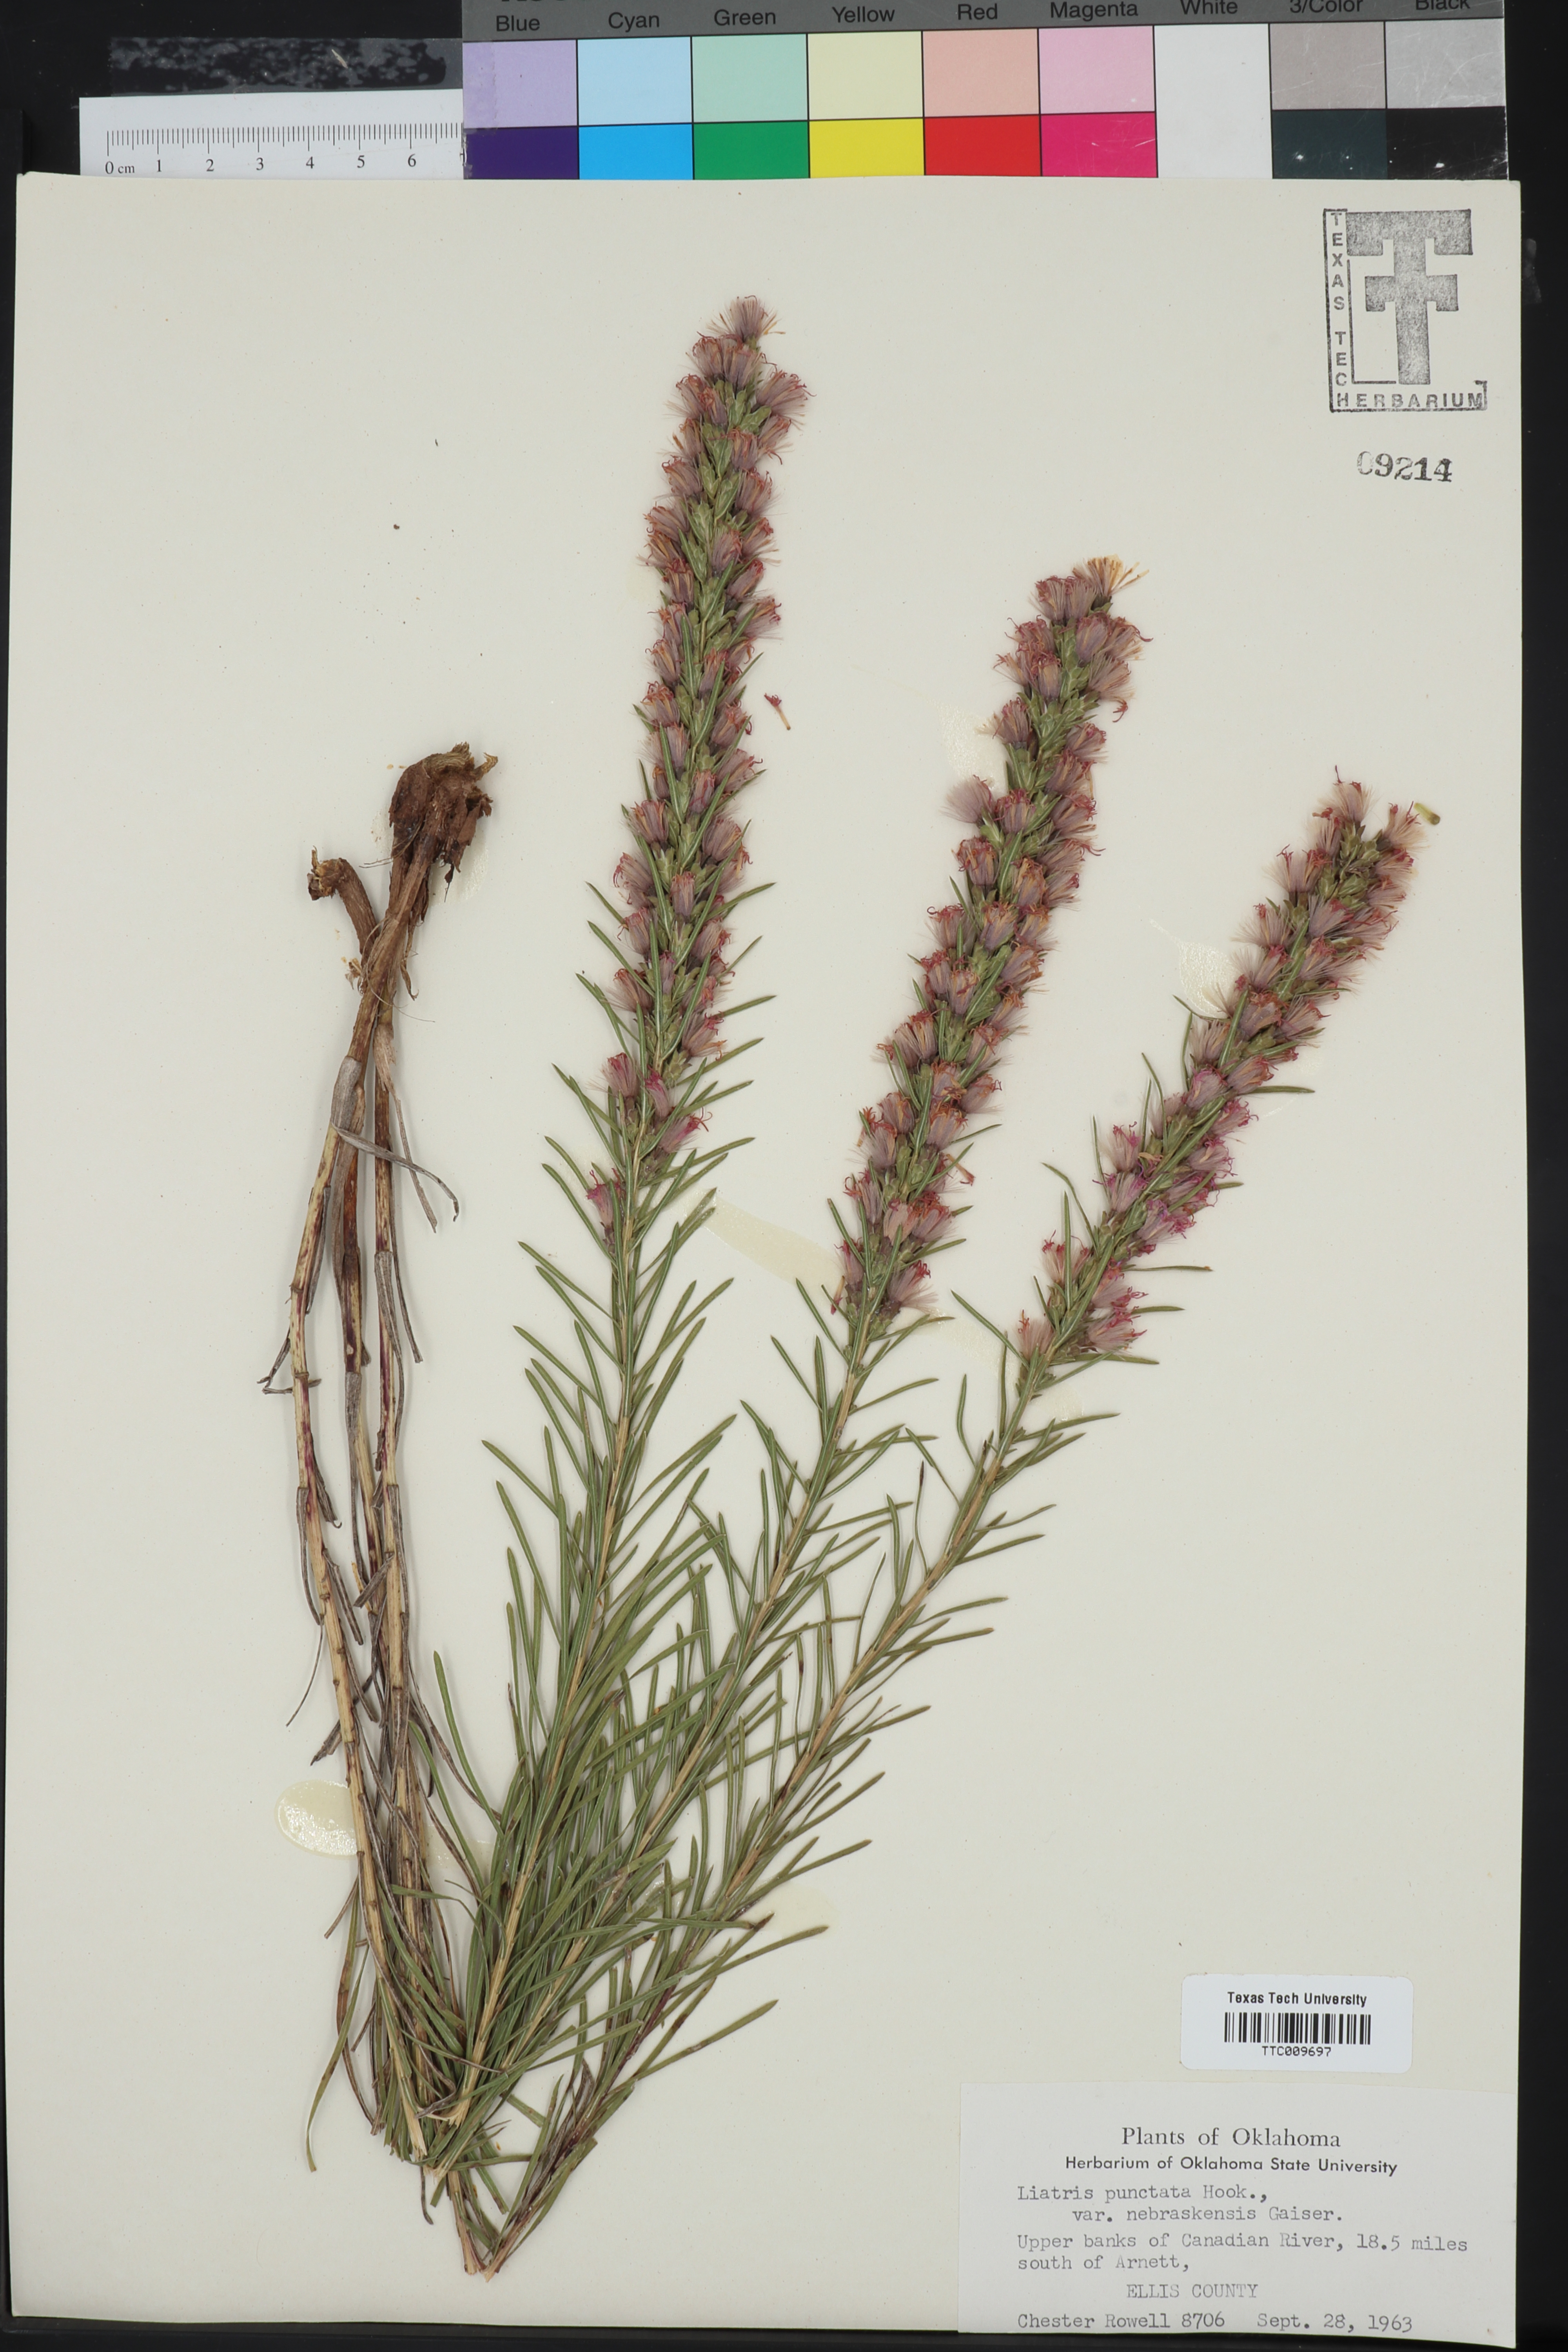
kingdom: Plantae
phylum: Tracheophyta
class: Magnoliopsida
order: Asterales
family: Asteraceae
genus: Liatris
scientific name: Liatris punctata
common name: Dotted gayfeather
